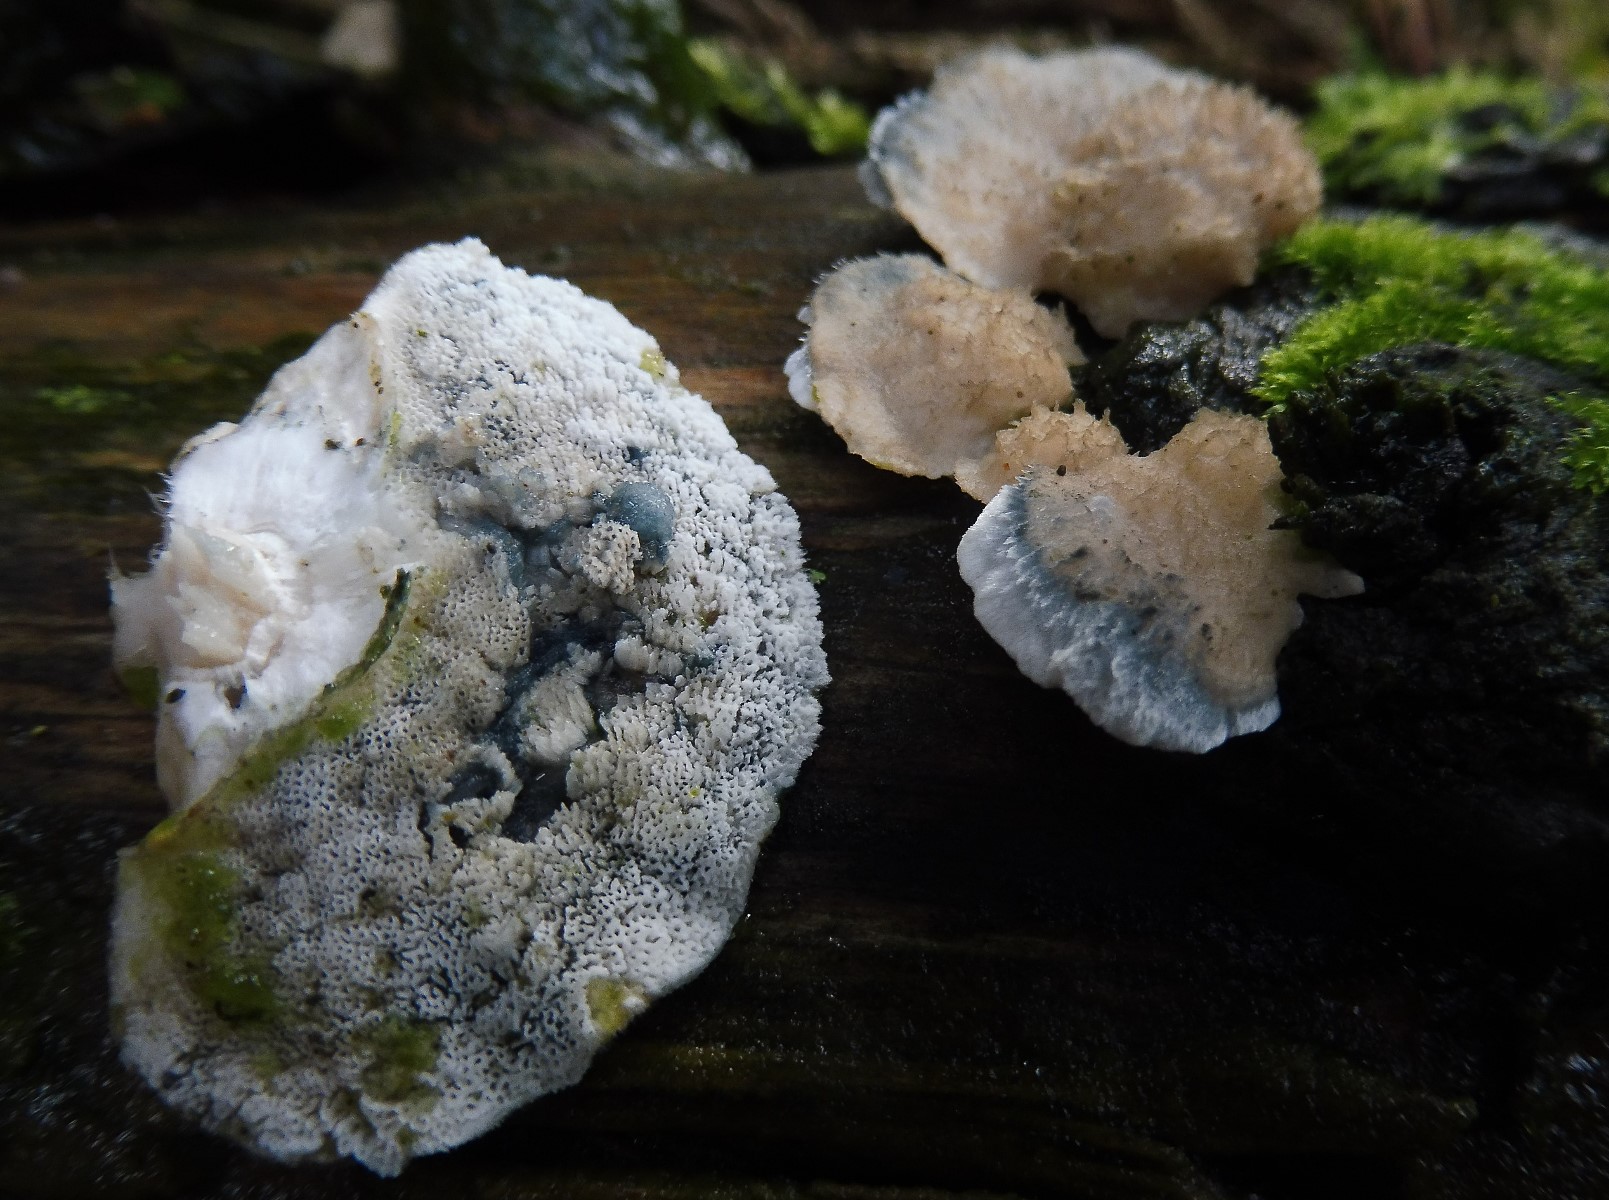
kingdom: Fungi
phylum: Basidiomycota
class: Agaricomycetes
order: Polyporales
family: Polyporaceae
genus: Cyanosporus
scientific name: Cyanosporus caesius
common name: blålig kødporesvamp
